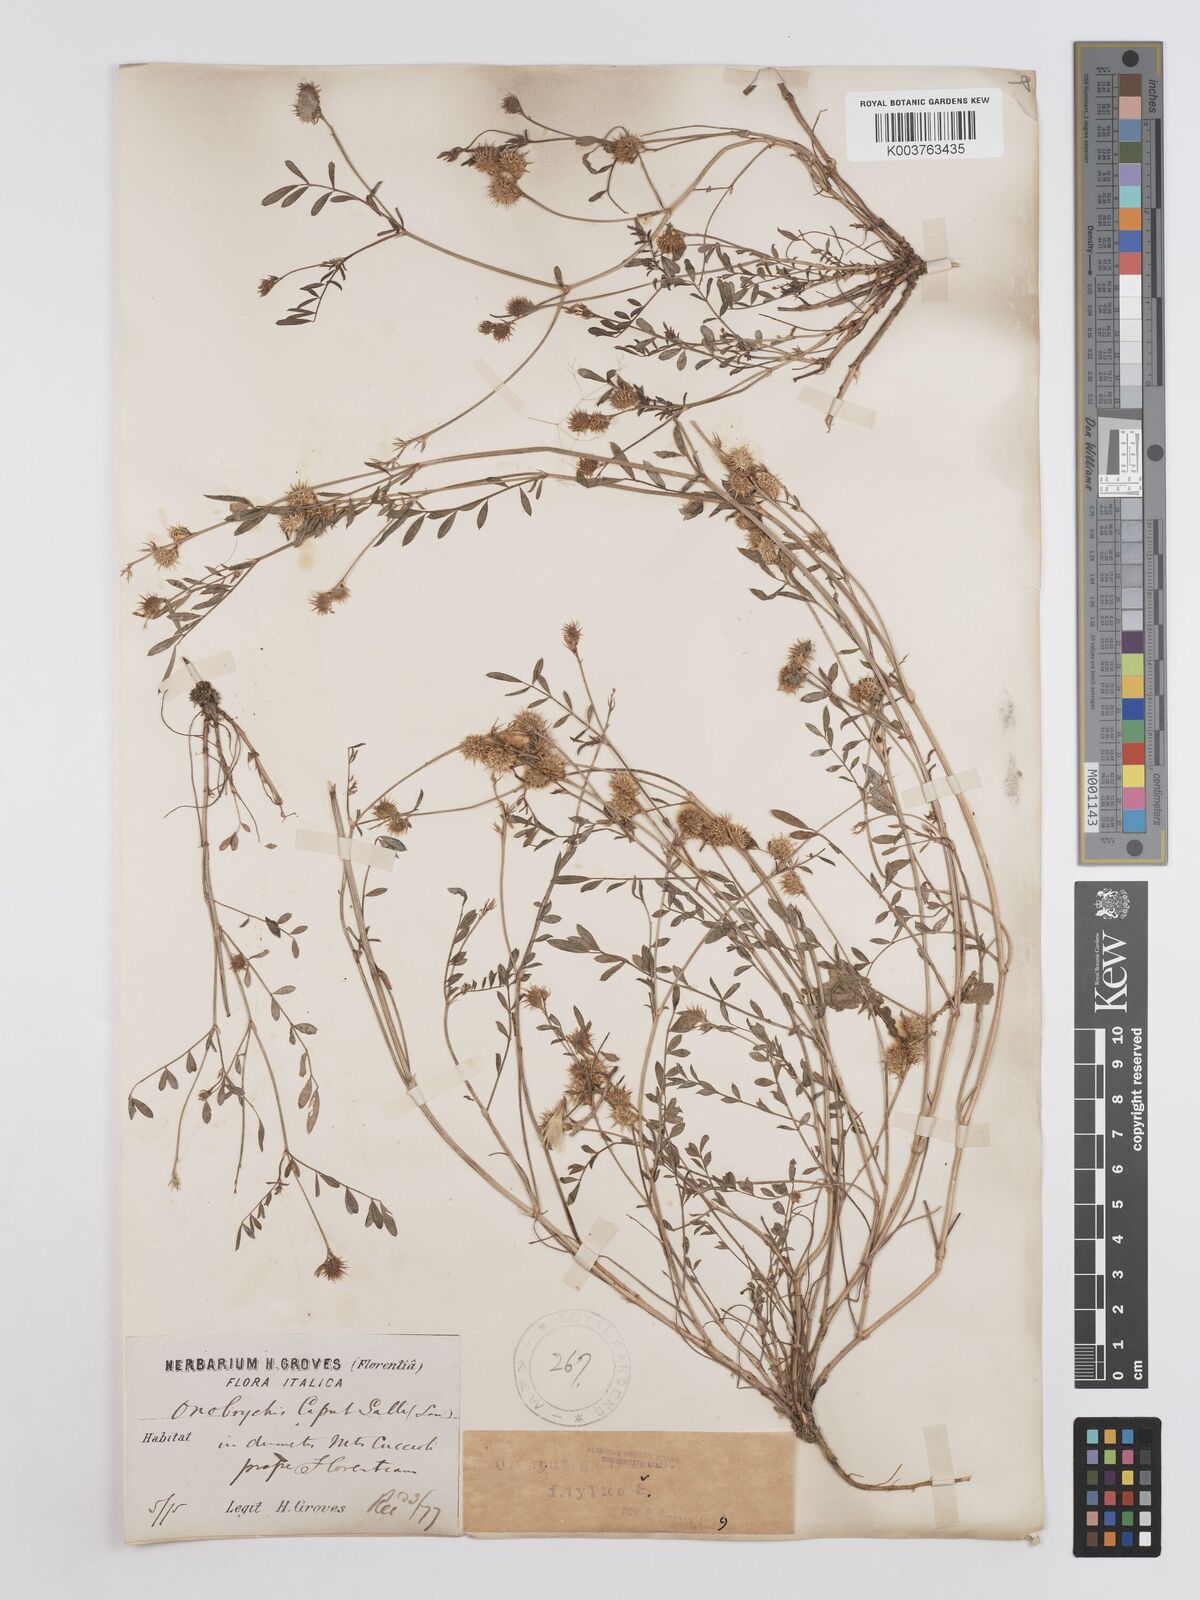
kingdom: Plantae
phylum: Tracheophyta
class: Magnoliopsida
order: Fabales
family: Fabaceae
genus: Onobrychis
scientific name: Onobrychis caput-galli
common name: Cockscomb sainfoin
